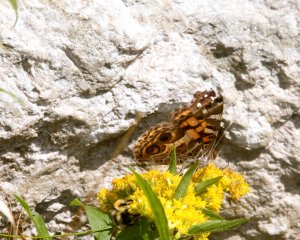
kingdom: Animalia
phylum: Arthropoda
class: Insecta
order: Lepidoptera
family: Nymphalidae
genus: Vanessa
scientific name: Vanessa virginiensis
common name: American Lady
